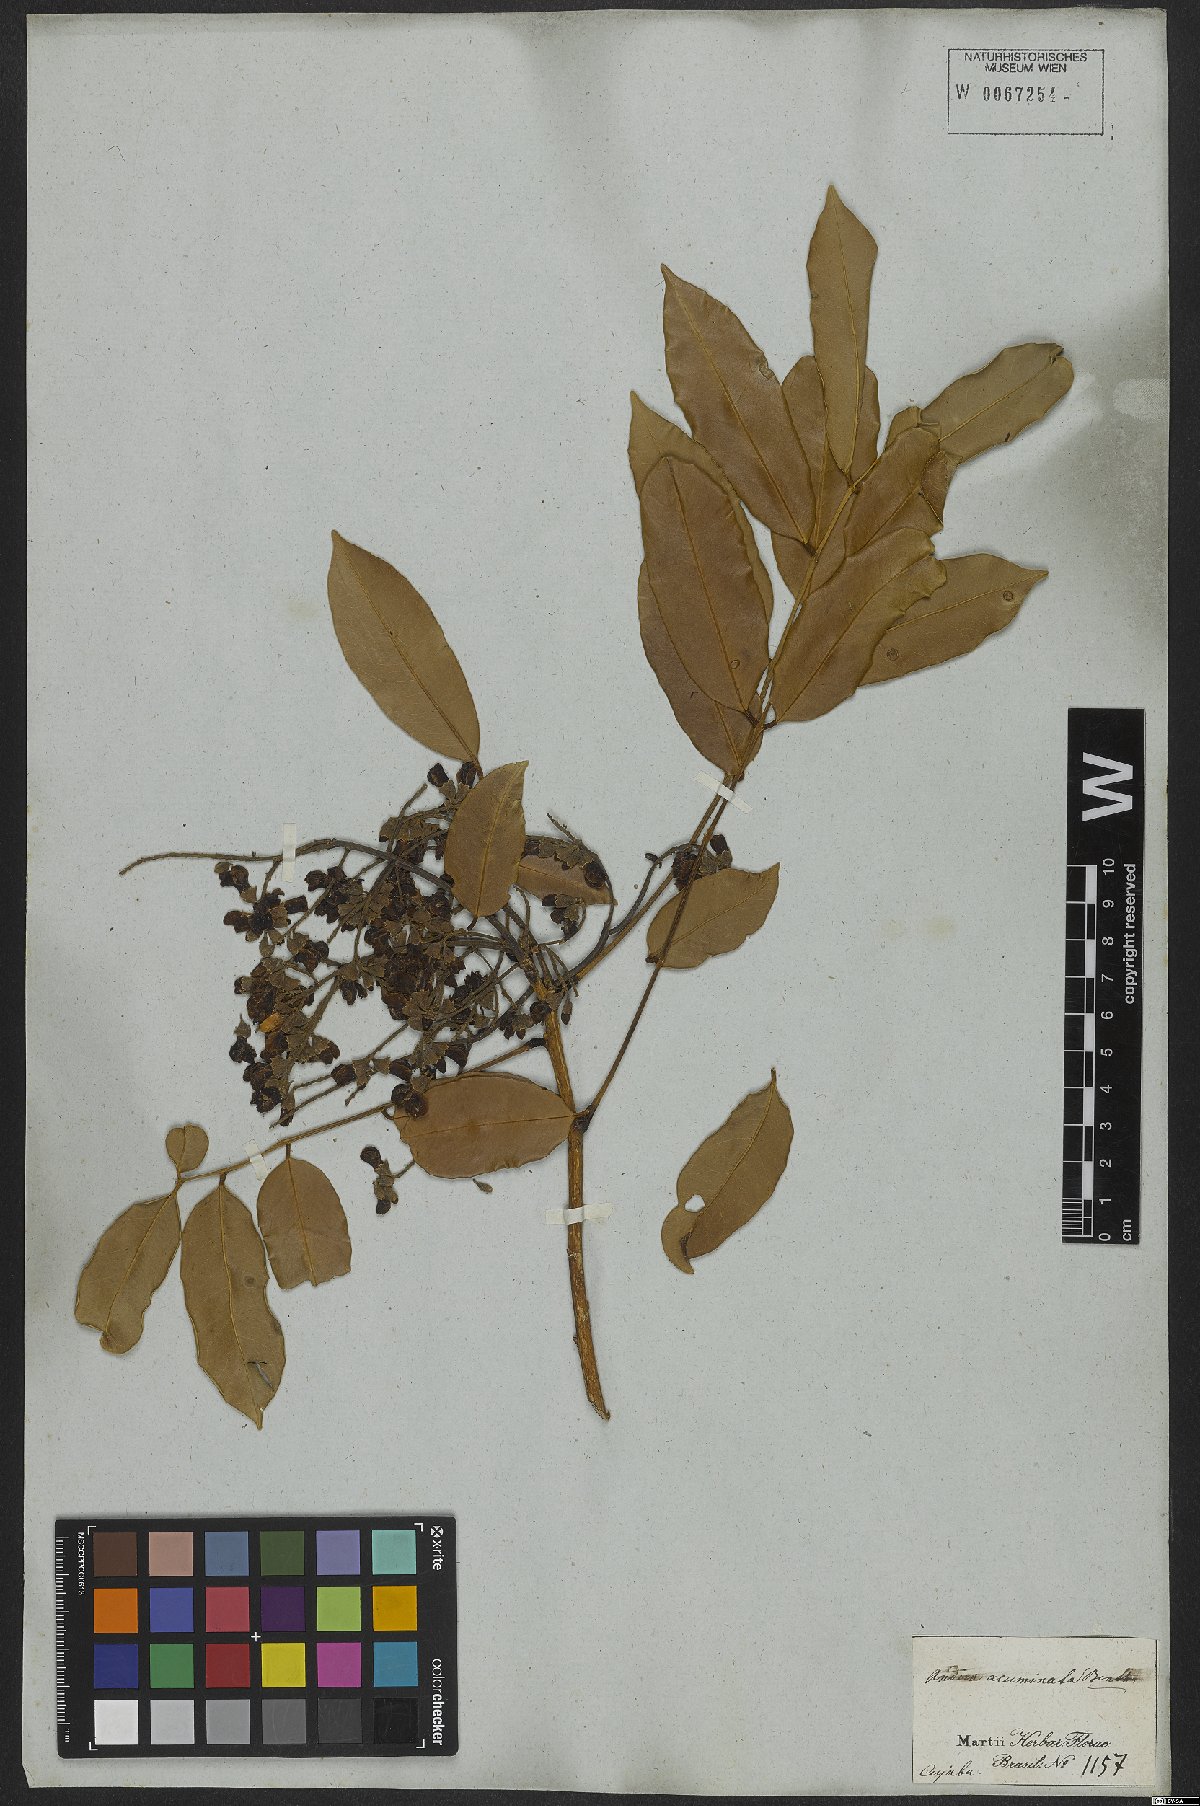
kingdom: Plantae
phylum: Tracheophyta
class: Magnoliopsida
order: Fabales
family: Fabaceae
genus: Andira
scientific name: Andira inermis
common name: Angelin
